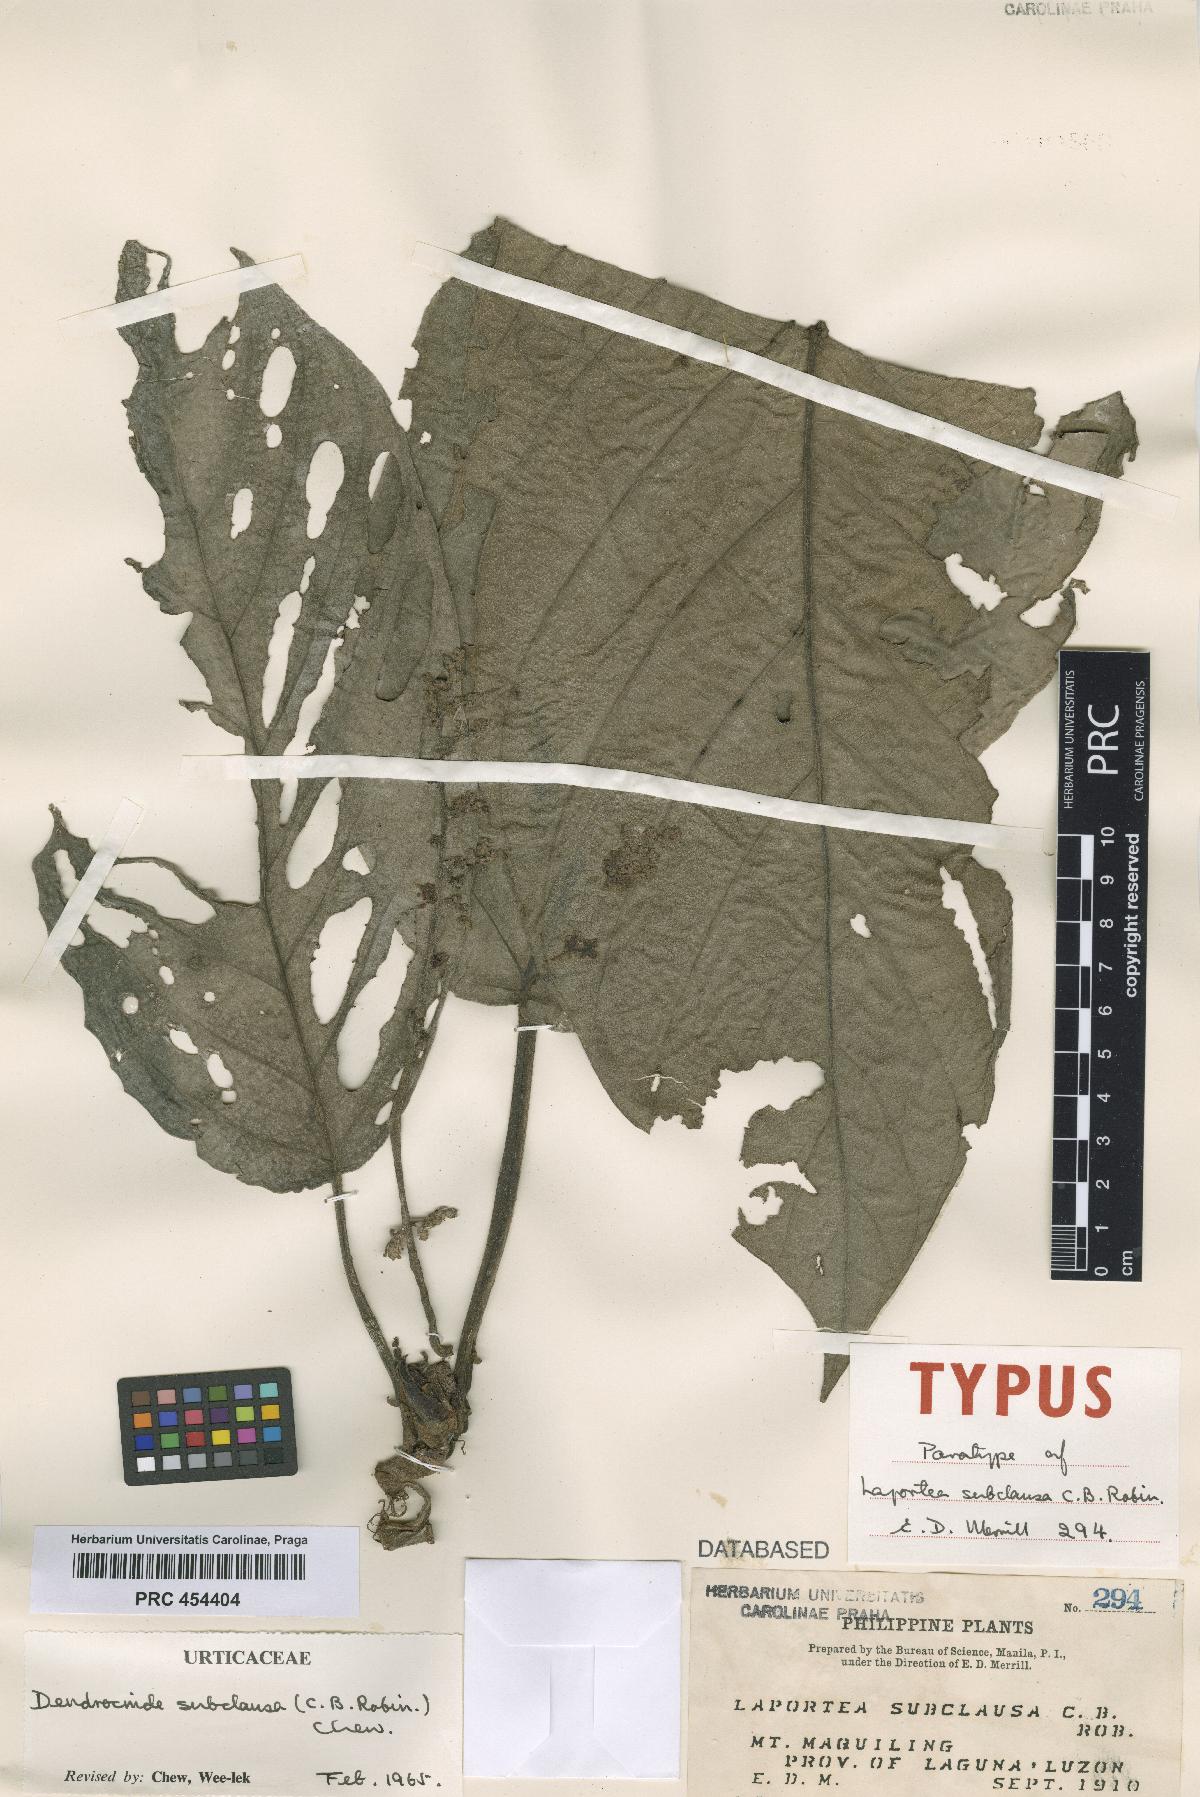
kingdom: Plantae
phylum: Tracheophyta
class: Magnoliopsida
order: Rosales
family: Urticaceae
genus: Dendrocnide
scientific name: Dendrocnide subclausa
